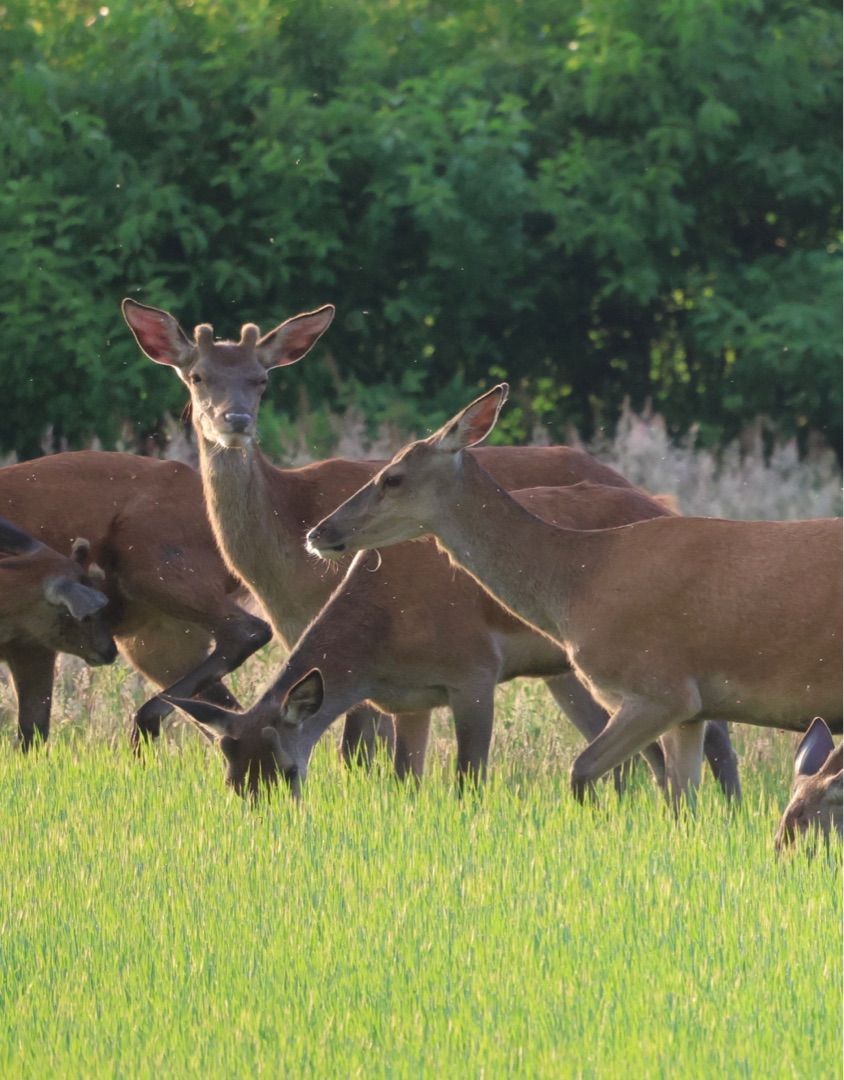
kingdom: Animalia
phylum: Chordata
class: Mammalia
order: Artiodactyla
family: Cervidae
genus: Cervus
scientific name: Cervus elaphus
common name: Krondyr
